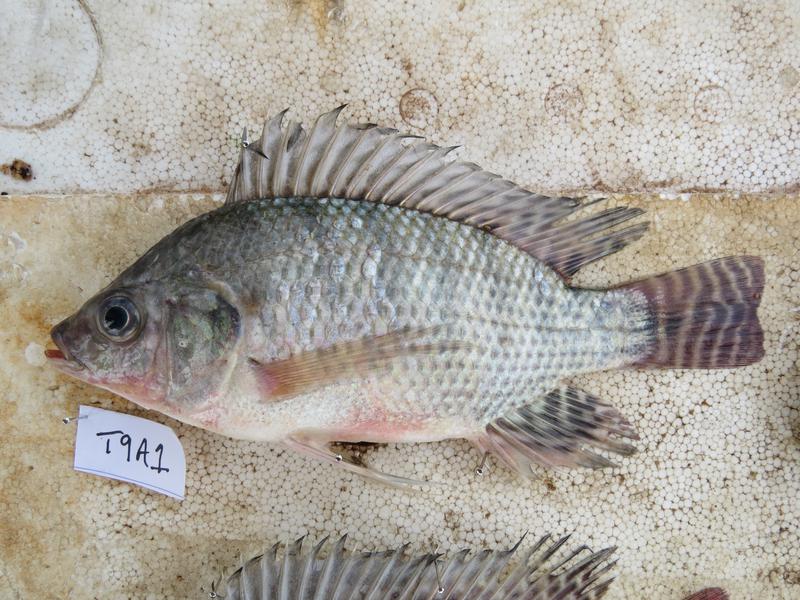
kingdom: Animalia
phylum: Chordata
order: Perciformes
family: Cichlidae
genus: Oreochromis
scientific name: Oreochromis niloticus
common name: Nile tilapia
